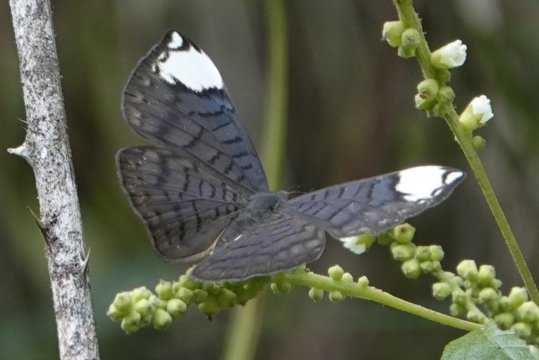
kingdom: Animalia
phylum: Arthropoda
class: Insecta
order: Lepidoptera
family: Lycaenidae
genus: Emesis
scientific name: Emesis aurimna
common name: White-spotted Emesis
